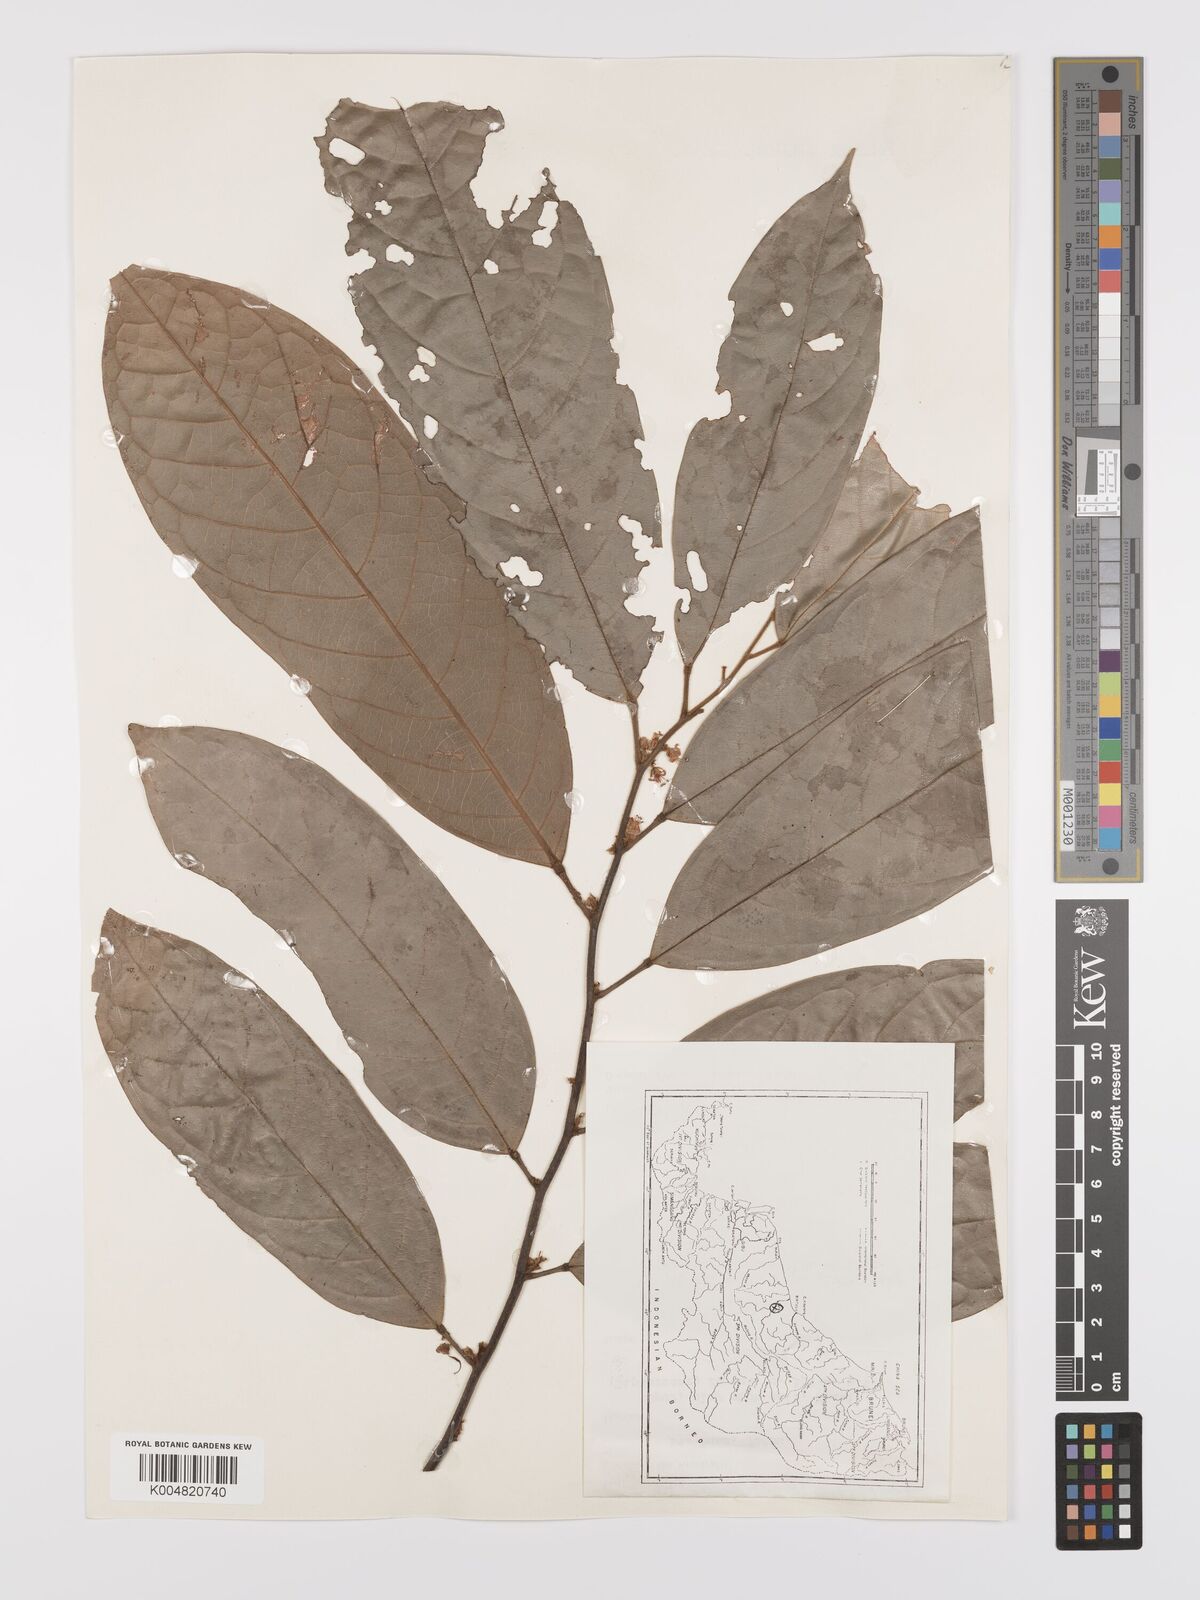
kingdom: Plantae
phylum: Tracheophyta
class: Magnoliopsida
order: Oxalidales
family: Connaraceae
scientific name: Connaraceae
